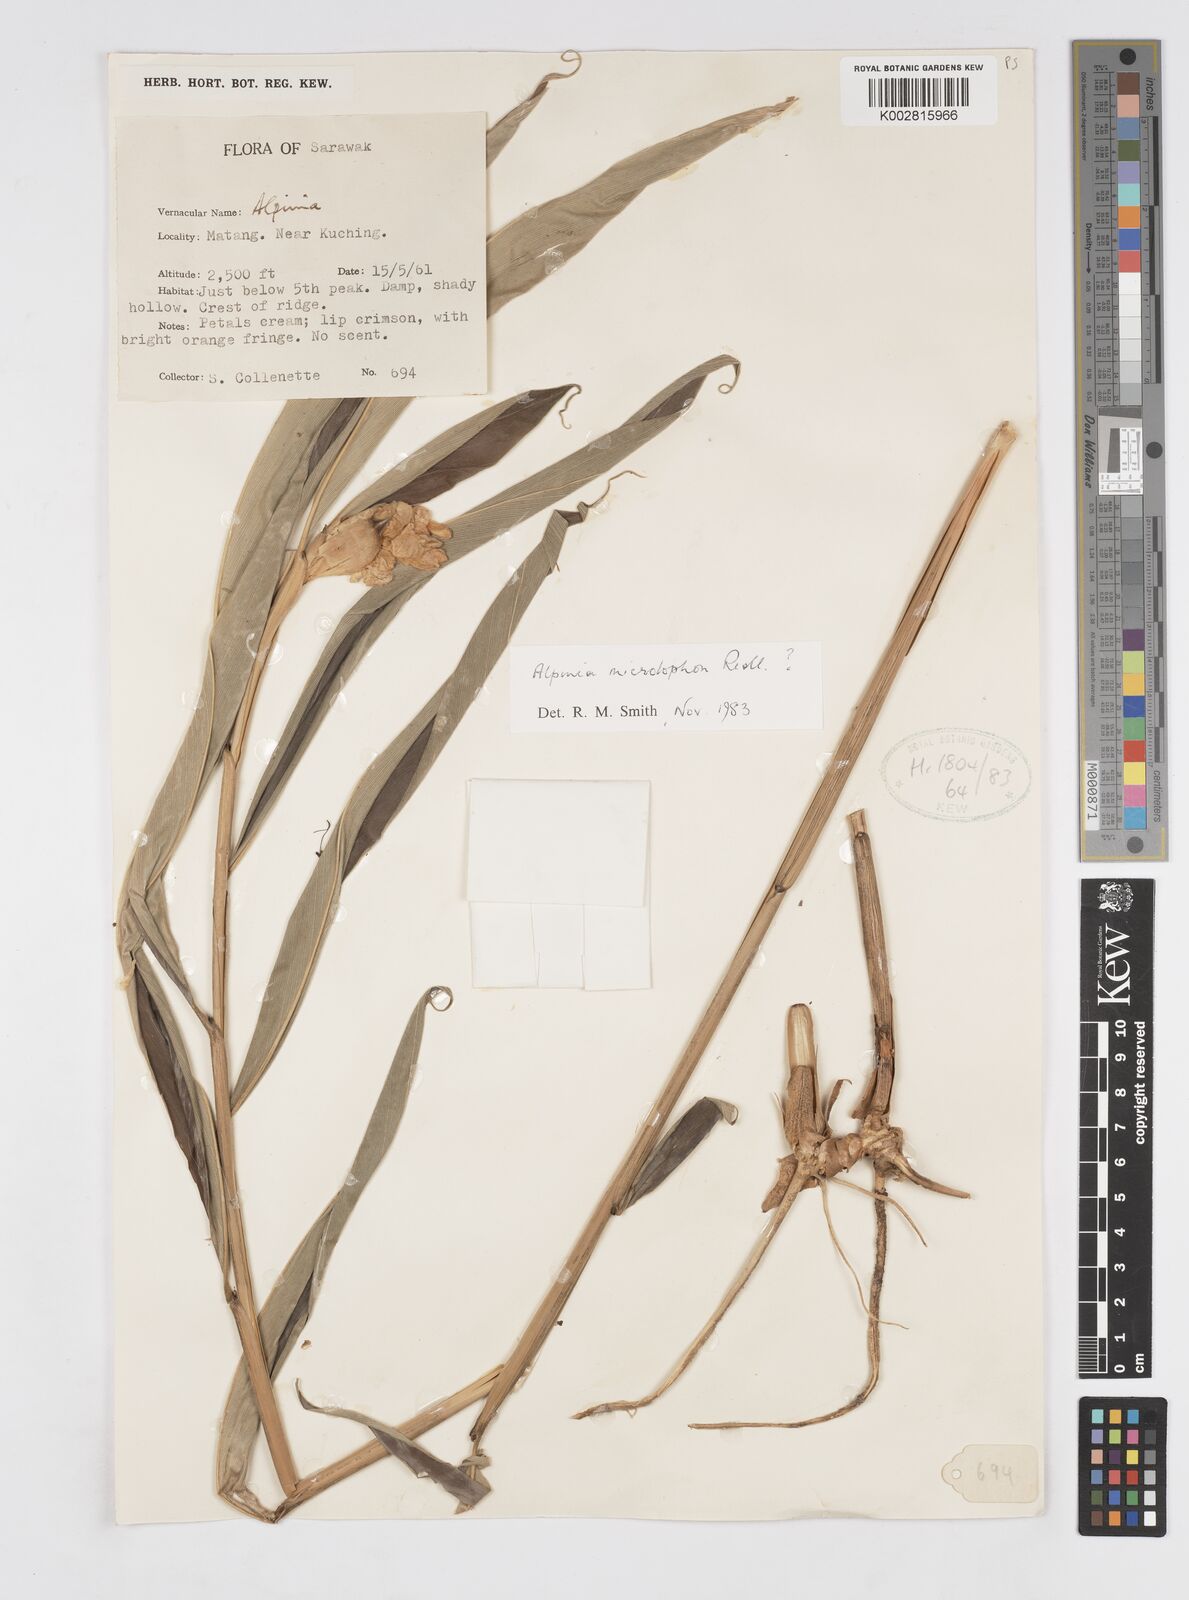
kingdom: Plantae
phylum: Tracheophyta
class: Liliopsida
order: Zingiberales
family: Zingiberaceae
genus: Alpinia
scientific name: Alpinia microlophon
